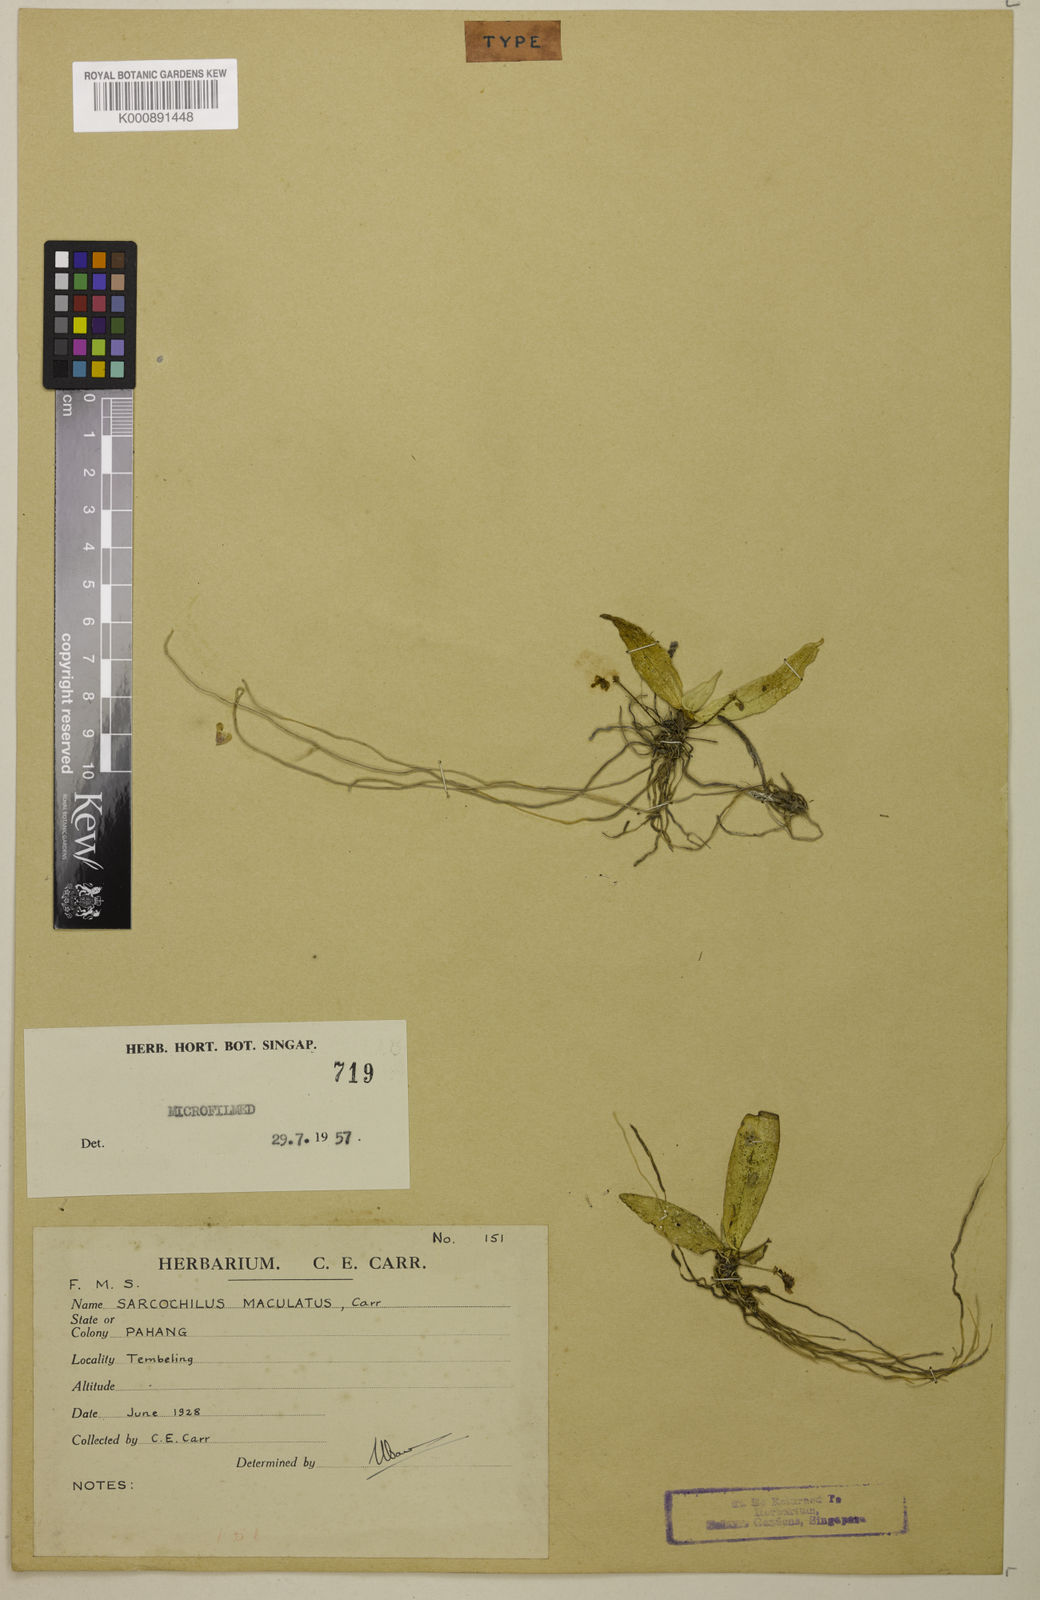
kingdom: Plantae
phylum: Tracheophyta
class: Liliopsida
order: Asparagales
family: Orchidaceae
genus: Grosourdya
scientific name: Grosourdya muscosa
